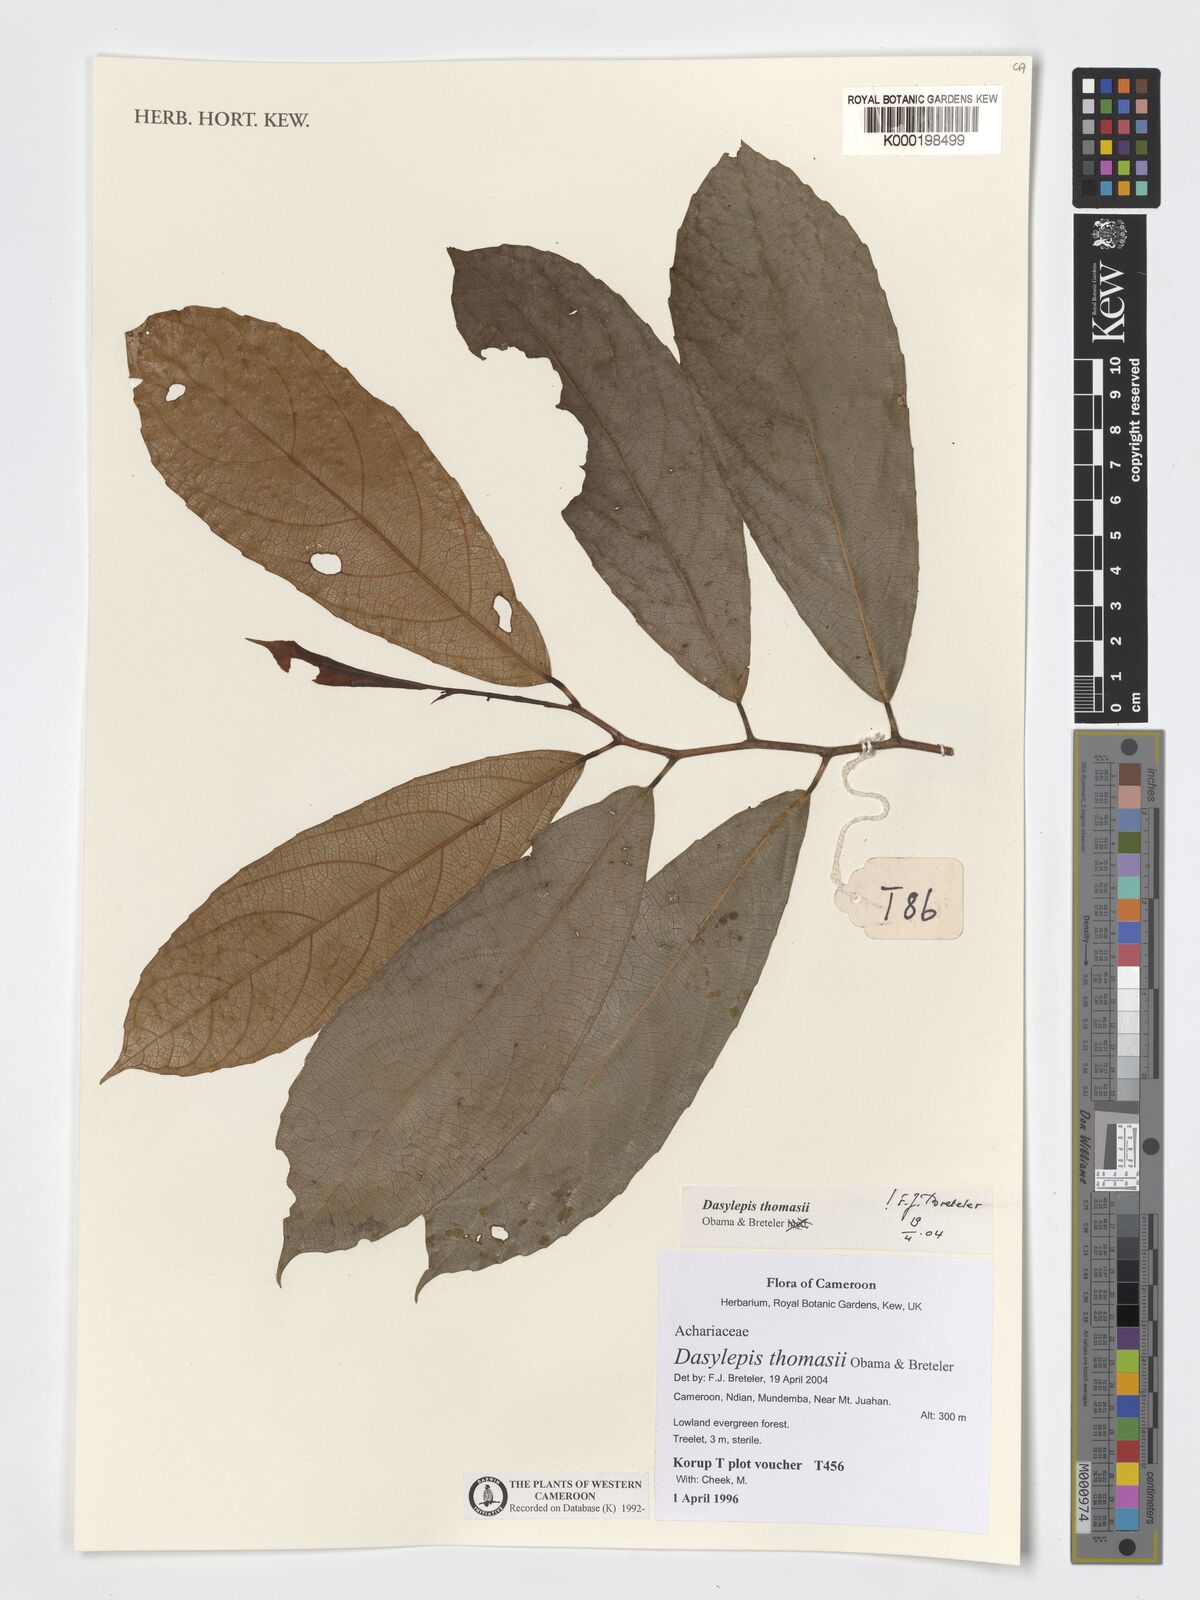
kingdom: Plantae
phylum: Tracheophyta
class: Magnoliopsida
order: Malpighiales
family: Achariaceae
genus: Dasylepis
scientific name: Dasylepis thomasii
